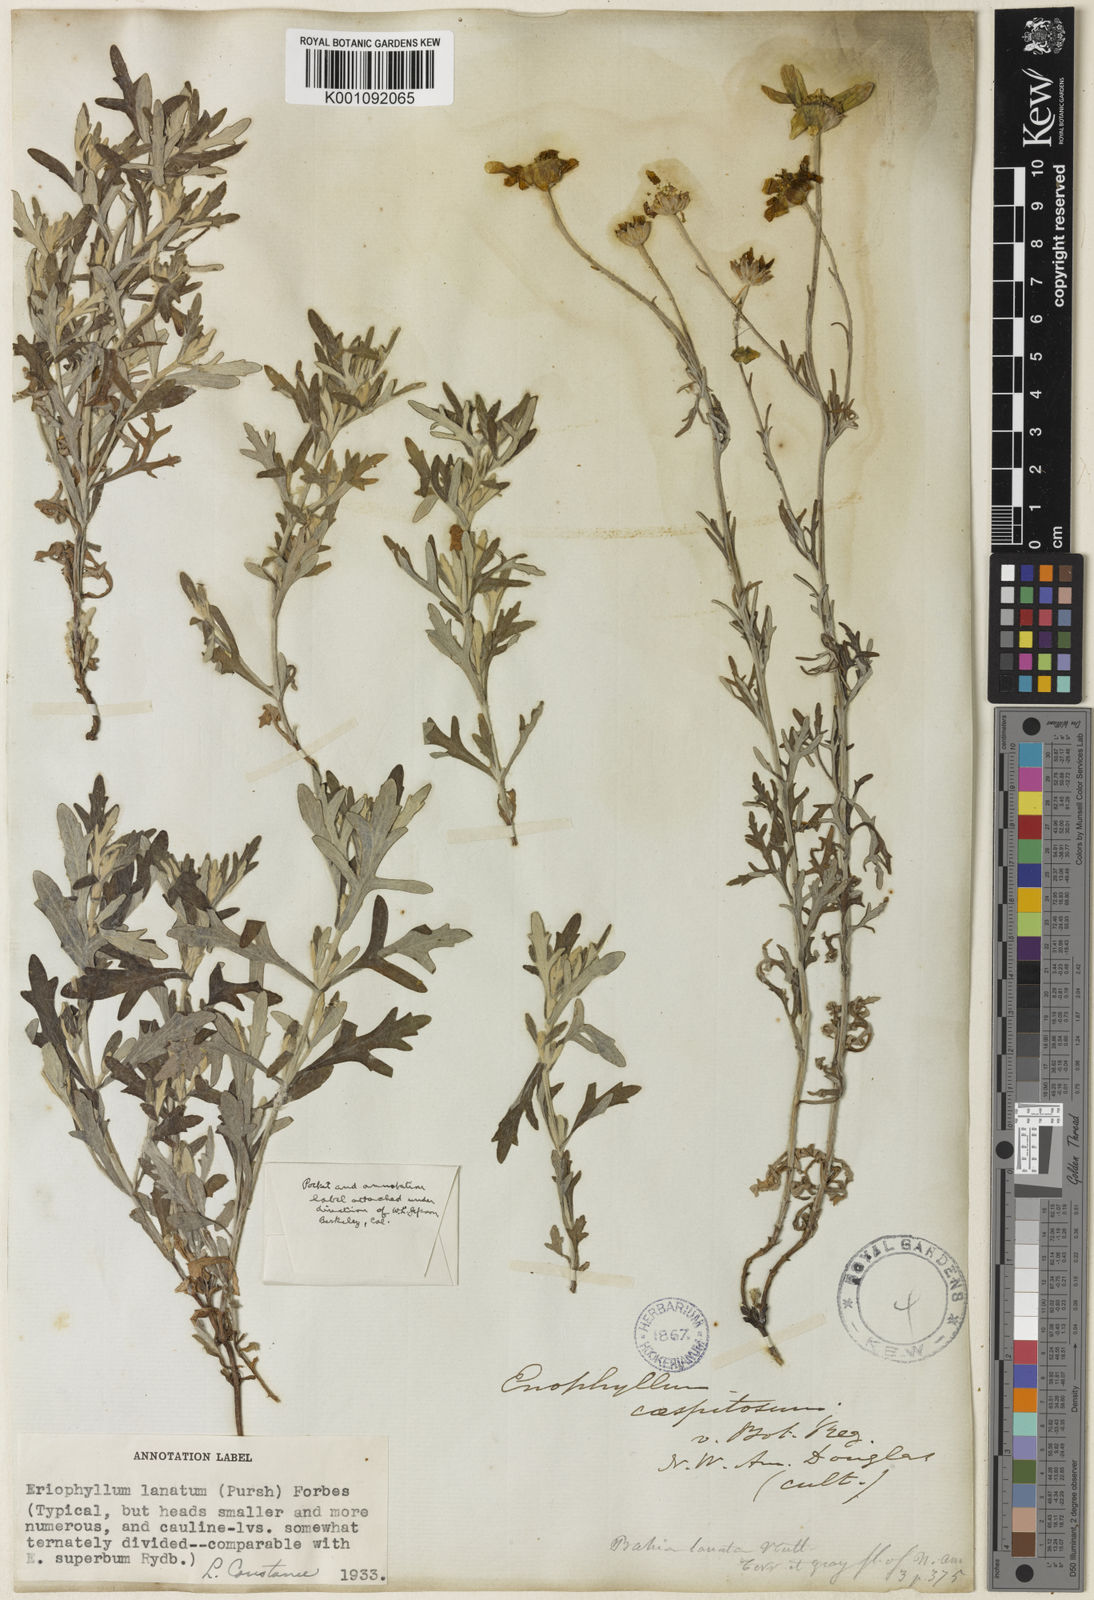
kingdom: Plantae
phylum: Tracheophyta
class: Magnoliopsida
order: Asterales
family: Asteraceae
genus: Eriophyllum
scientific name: Eriophyllum lanatum
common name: Common woolly-sunflower
